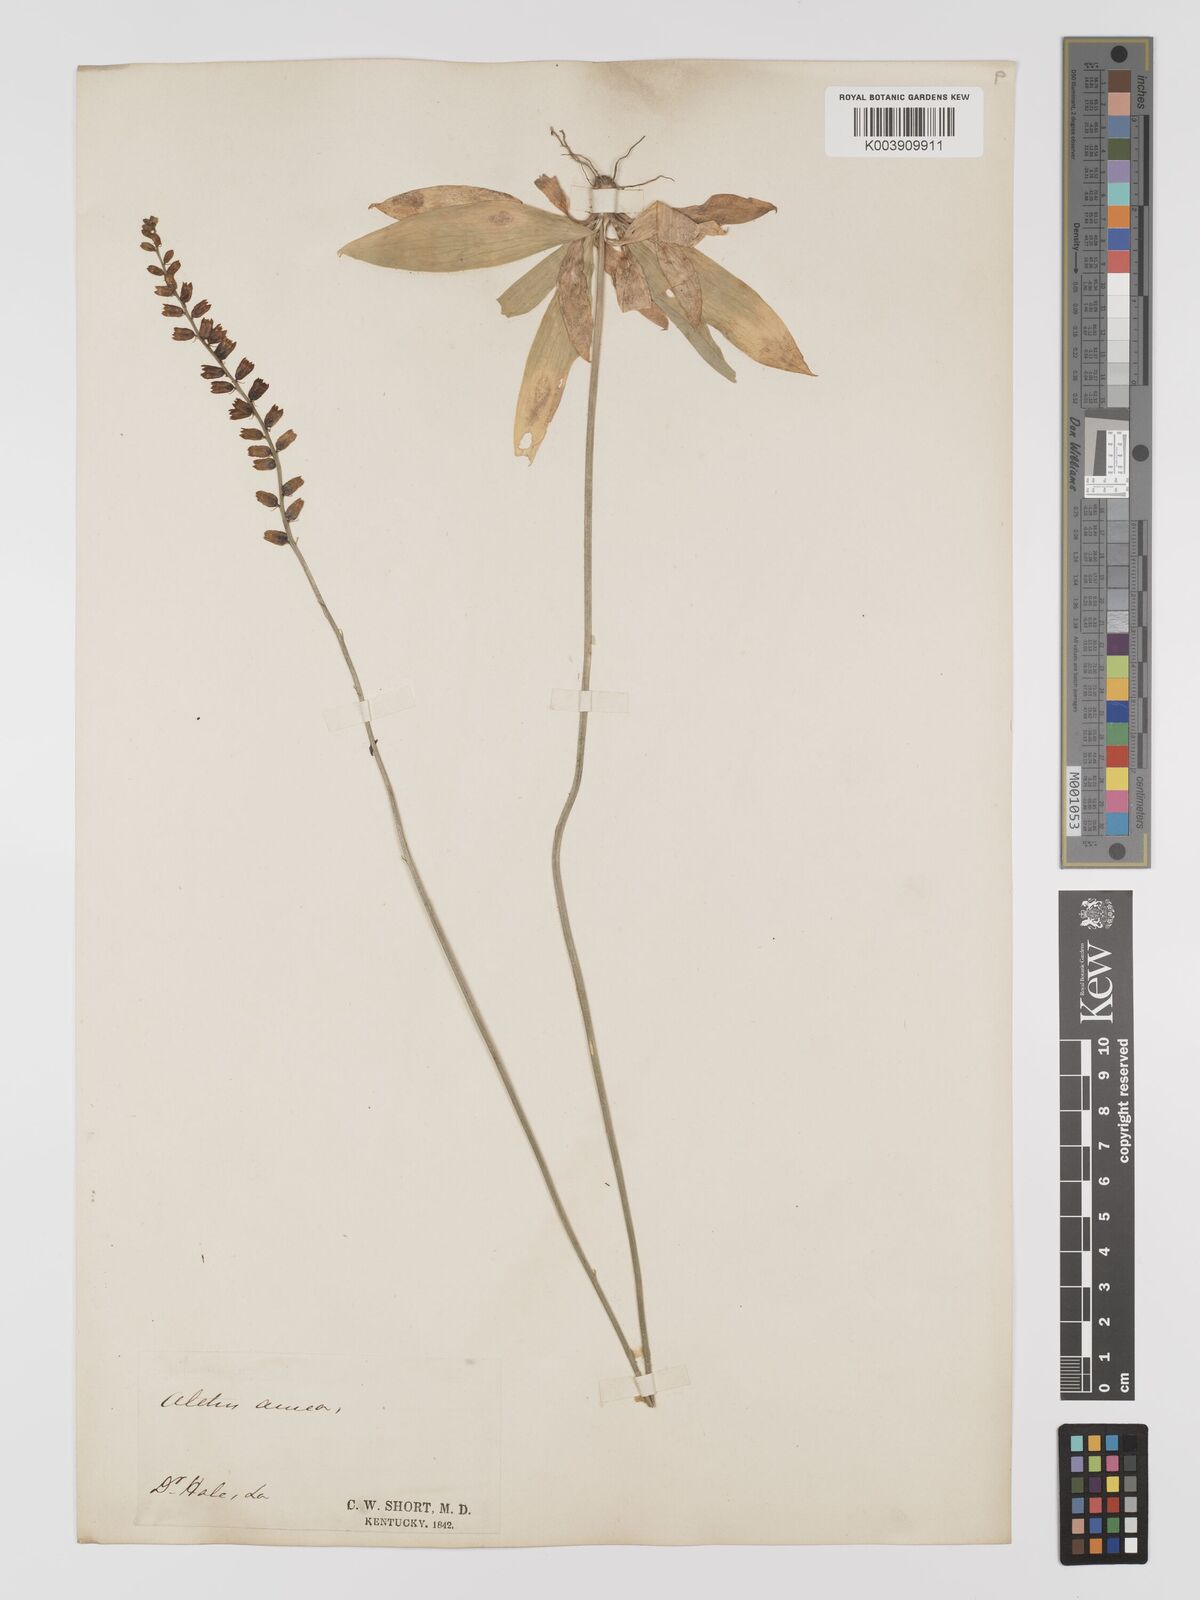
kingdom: Plantae
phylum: Tracheophyta
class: Liliopsida
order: Dioscoreales
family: Nartheciaceae
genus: Aletris
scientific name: Aletris aurea
